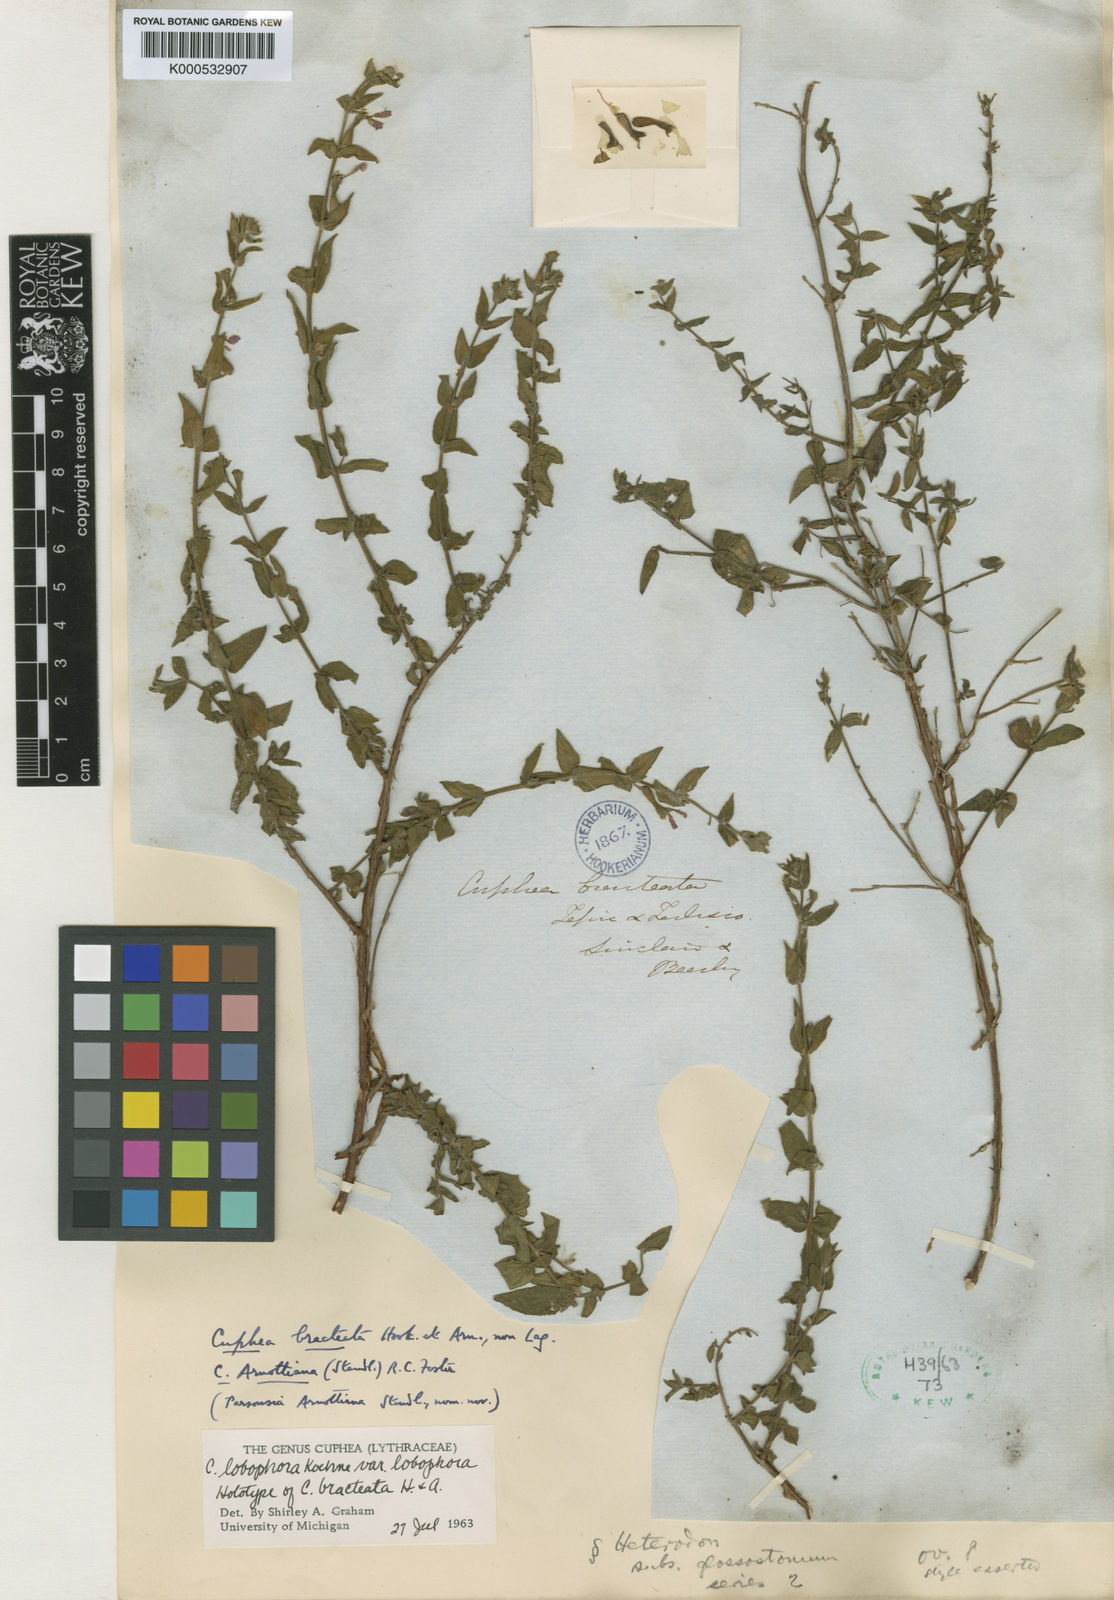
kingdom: Plantae
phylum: Tracheophyta
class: Magnoliopsida
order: Myrtales
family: Lythraceae
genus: Cuphea
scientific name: Cuphea lobophora
